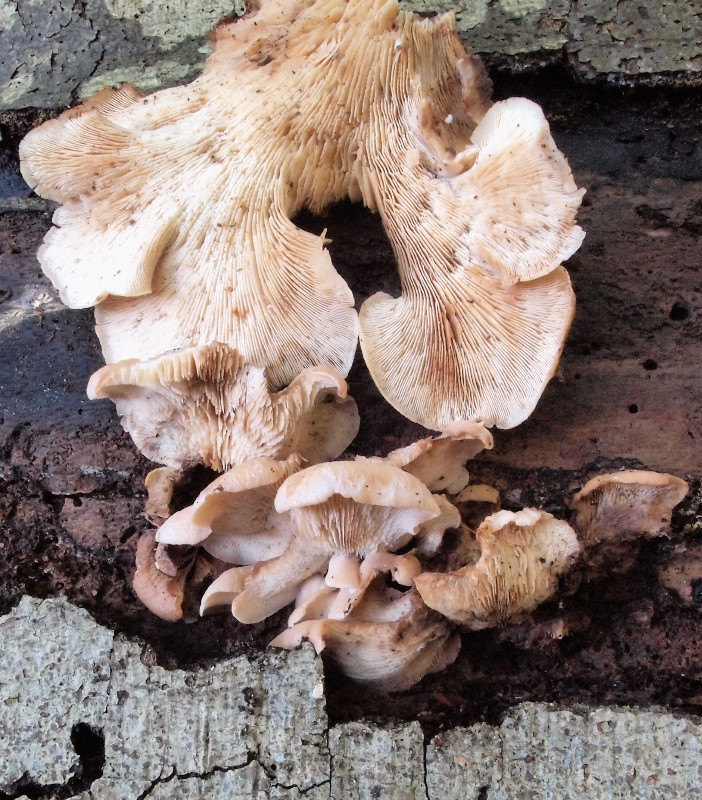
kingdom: Fungi
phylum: Basidiomycota
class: Agaricomycetes
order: Russulales
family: Auriscalpiaceae
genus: Lentinellus
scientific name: Lentinellus ursinus
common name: børstehåret savbladhat
